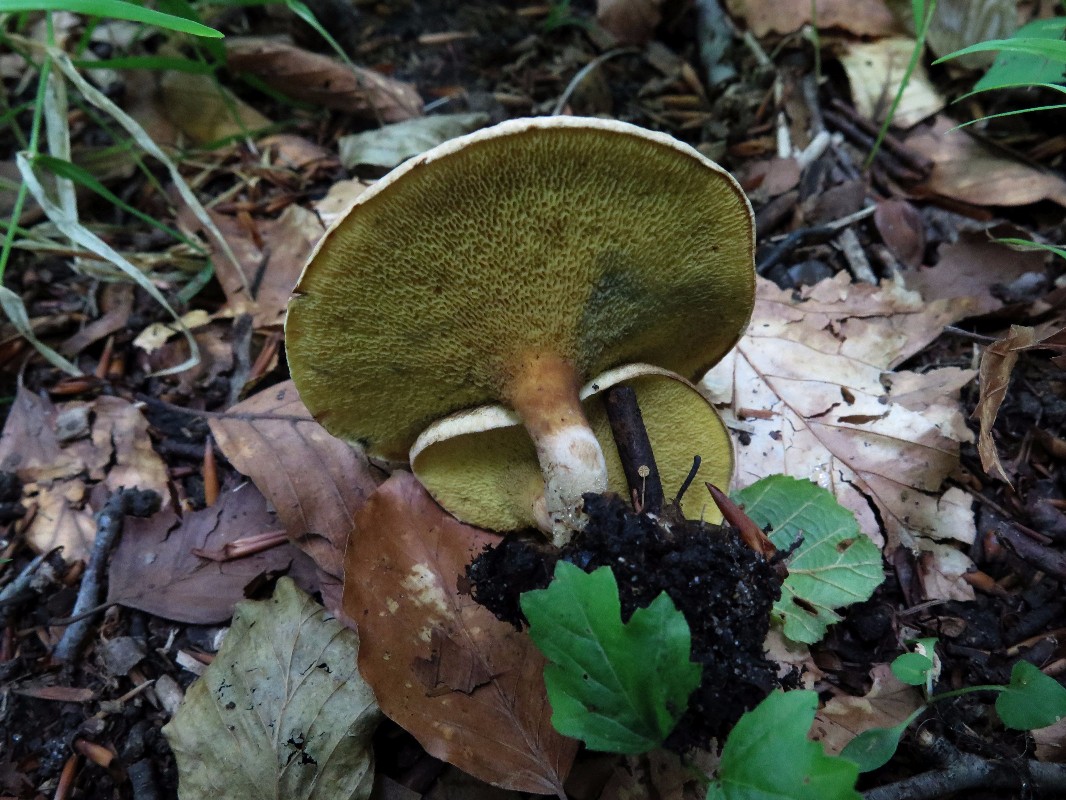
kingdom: Fungi
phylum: Basidiomycota
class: Agaricomycetes
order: Boletales
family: Paxillaceae
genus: Gyrodon
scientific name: Gyrodon lividus
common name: ellerørhat
